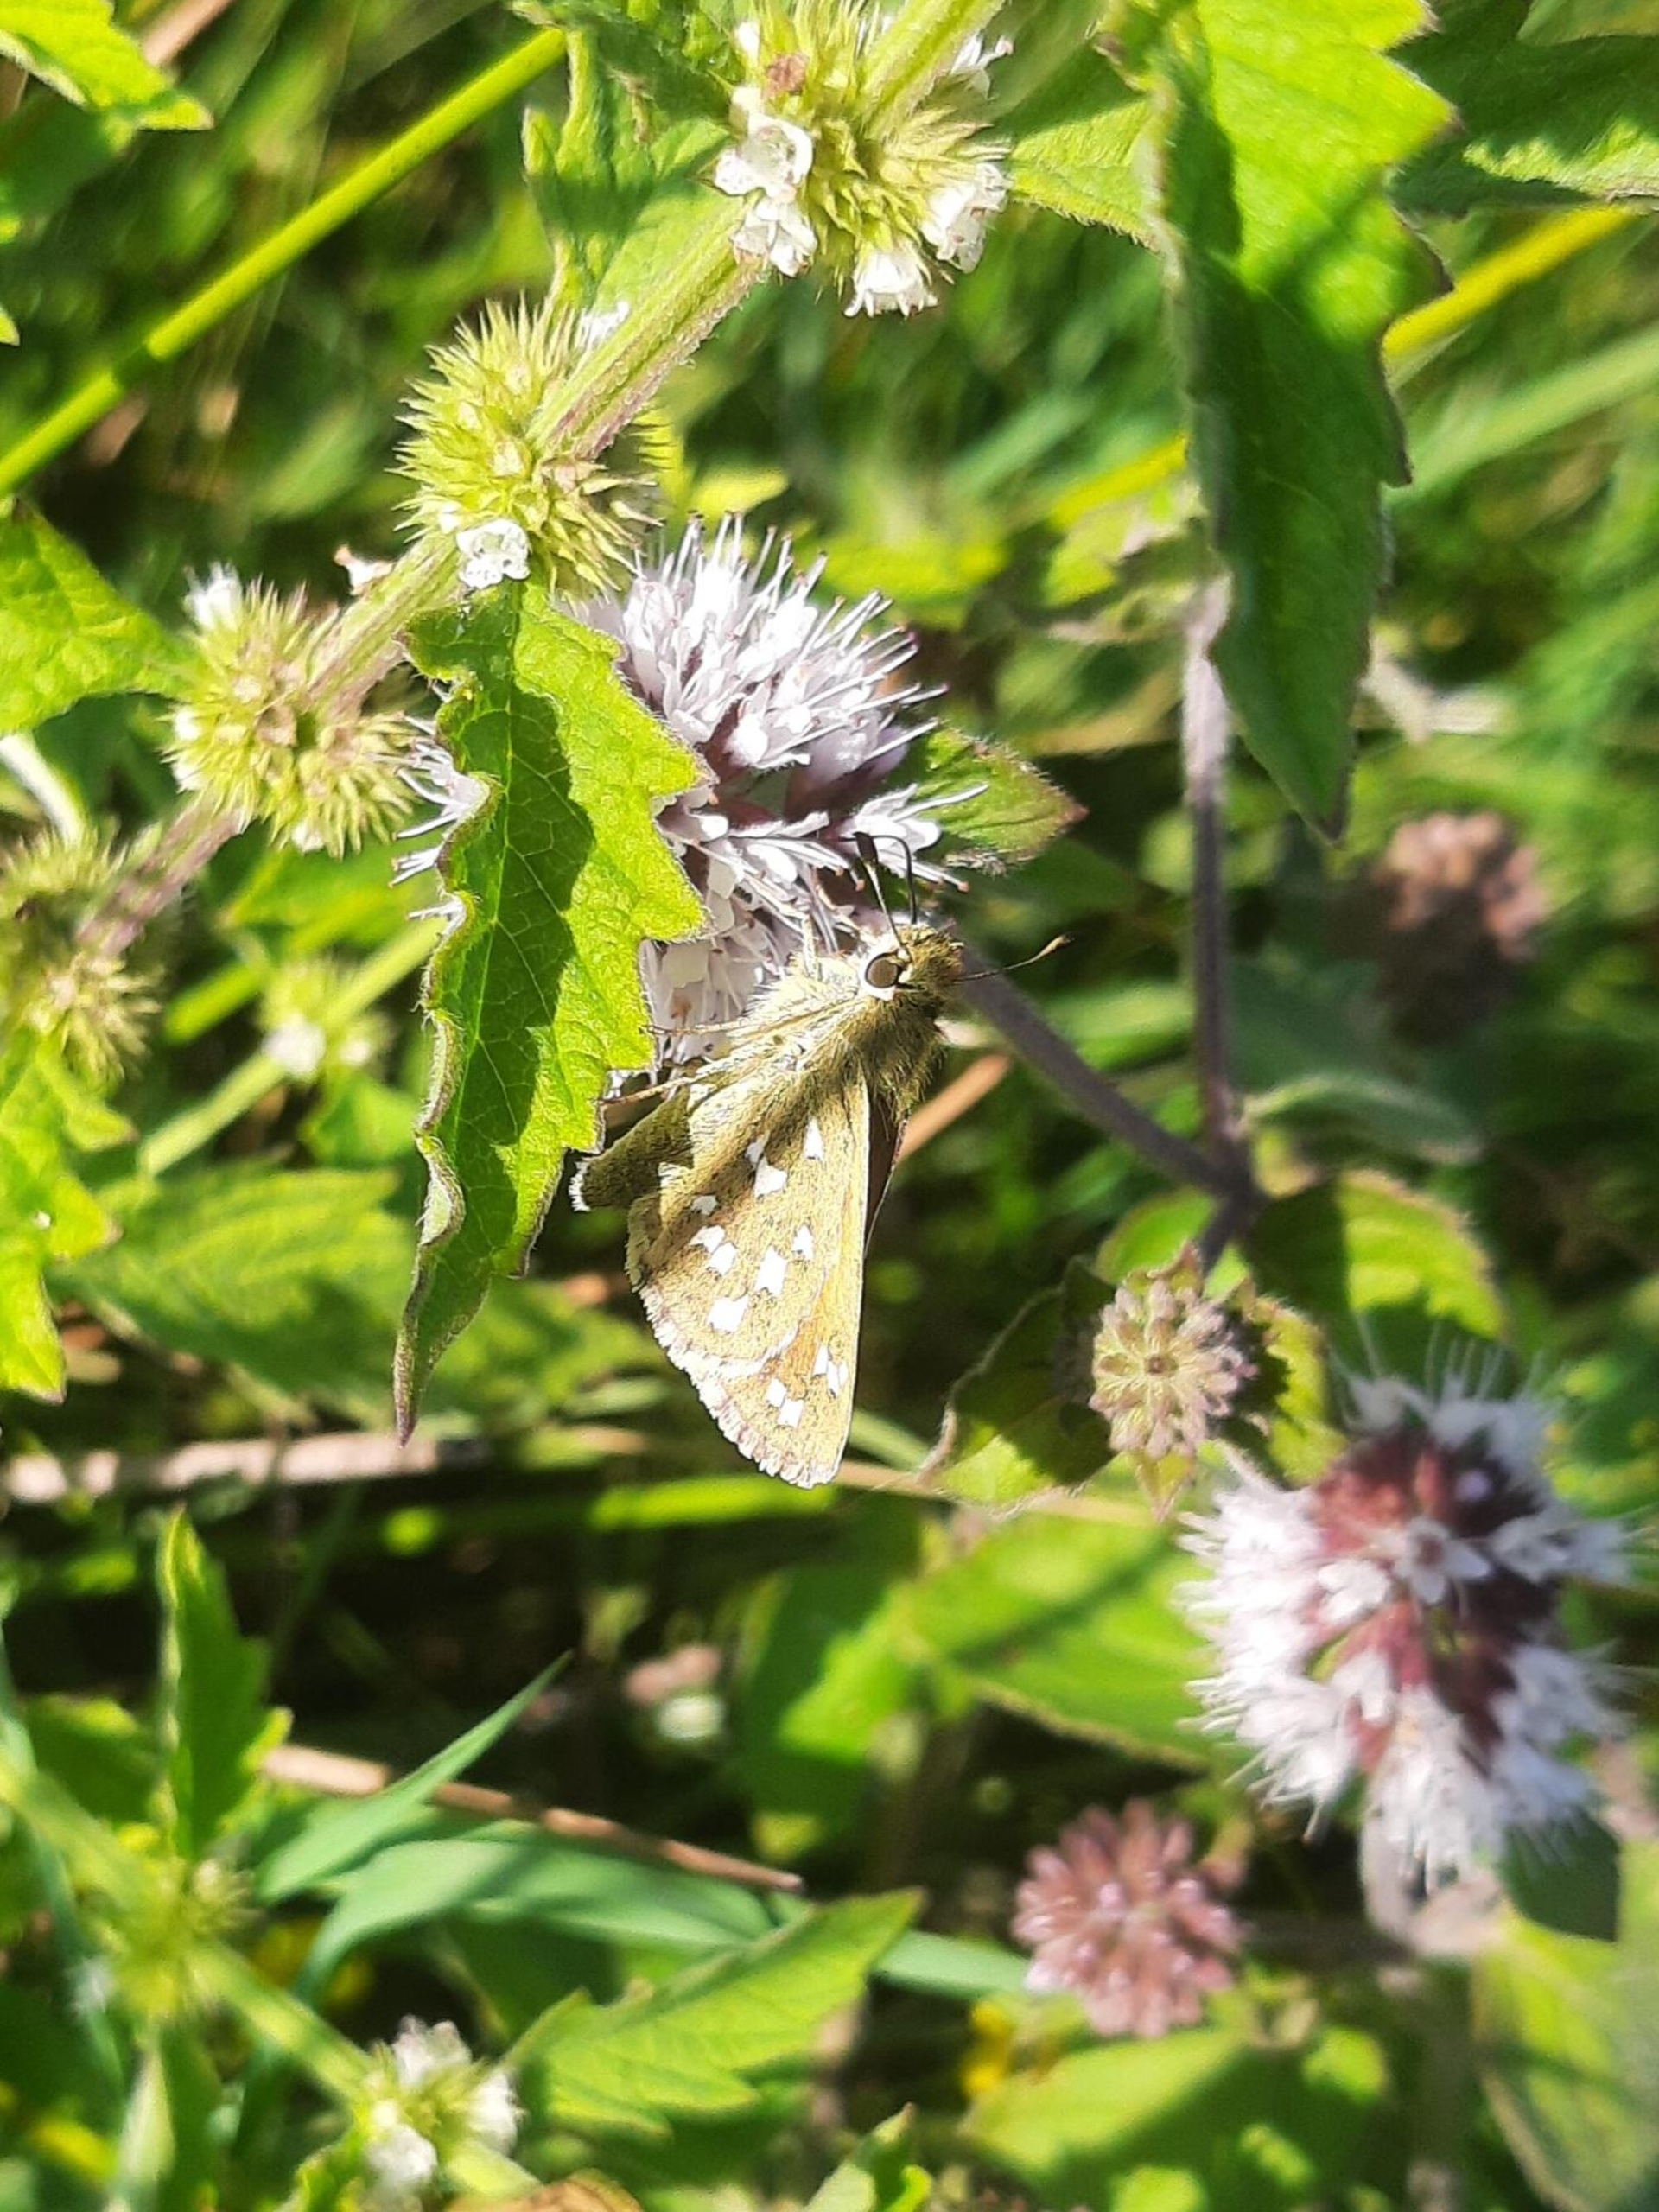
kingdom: Animalia
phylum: Arthropoda
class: Insecta
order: Lepidoptera
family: Hesperiidae
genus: Hesperia
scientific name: Hesperia comma
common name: Kommabredpande
